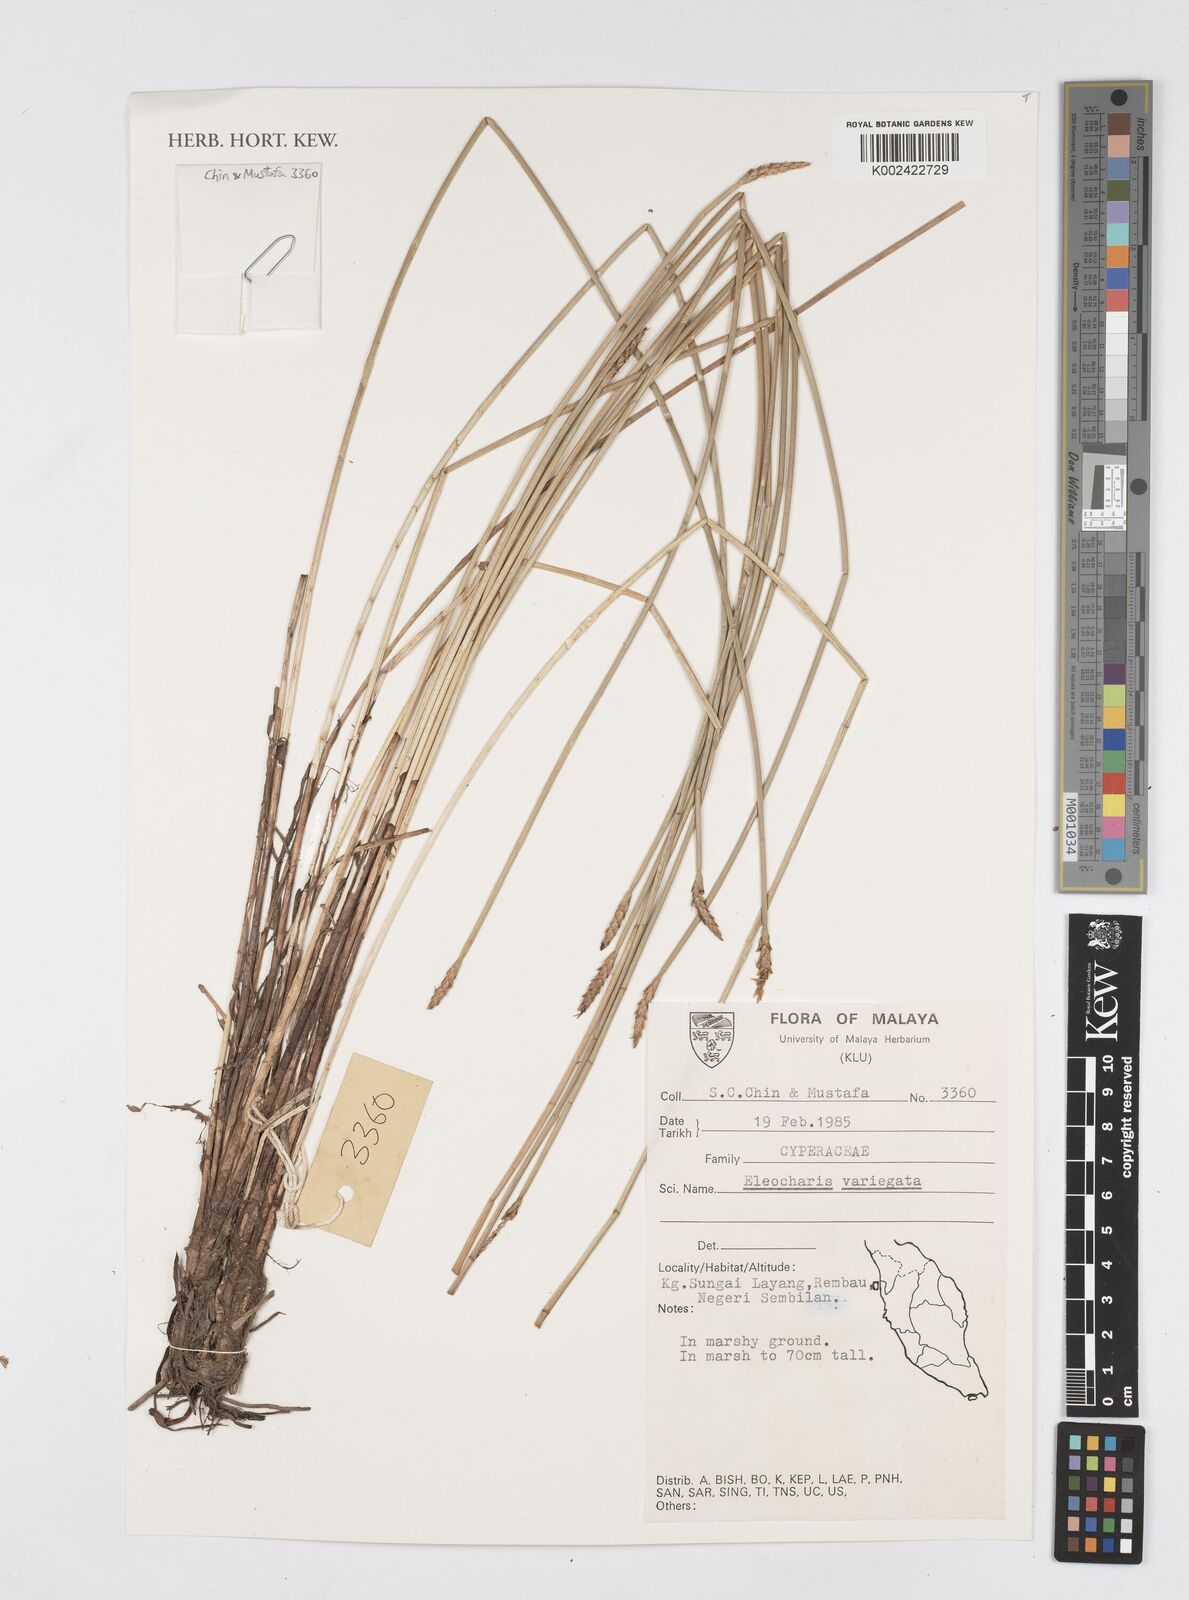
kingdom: Plantae
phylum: Tracheophyta
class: Liliopsida
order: Poales
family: Cyperaceae
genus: Eleocharis
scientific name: Eleocharis variegata
